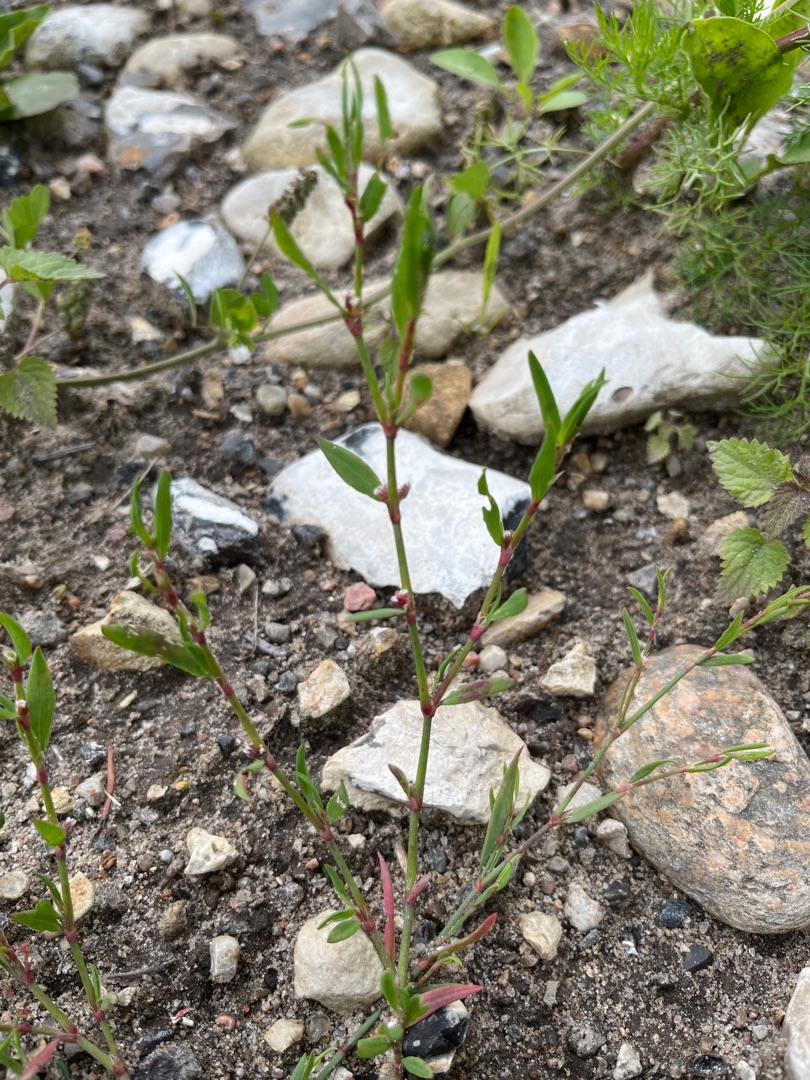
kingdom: Plantae
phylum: Tracheophyta
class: Magnoliopsida
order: Caryophyllales
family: Polygonaceae
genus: Polygonum
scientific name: Polygonum aviculare
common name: Vej-pileurt
